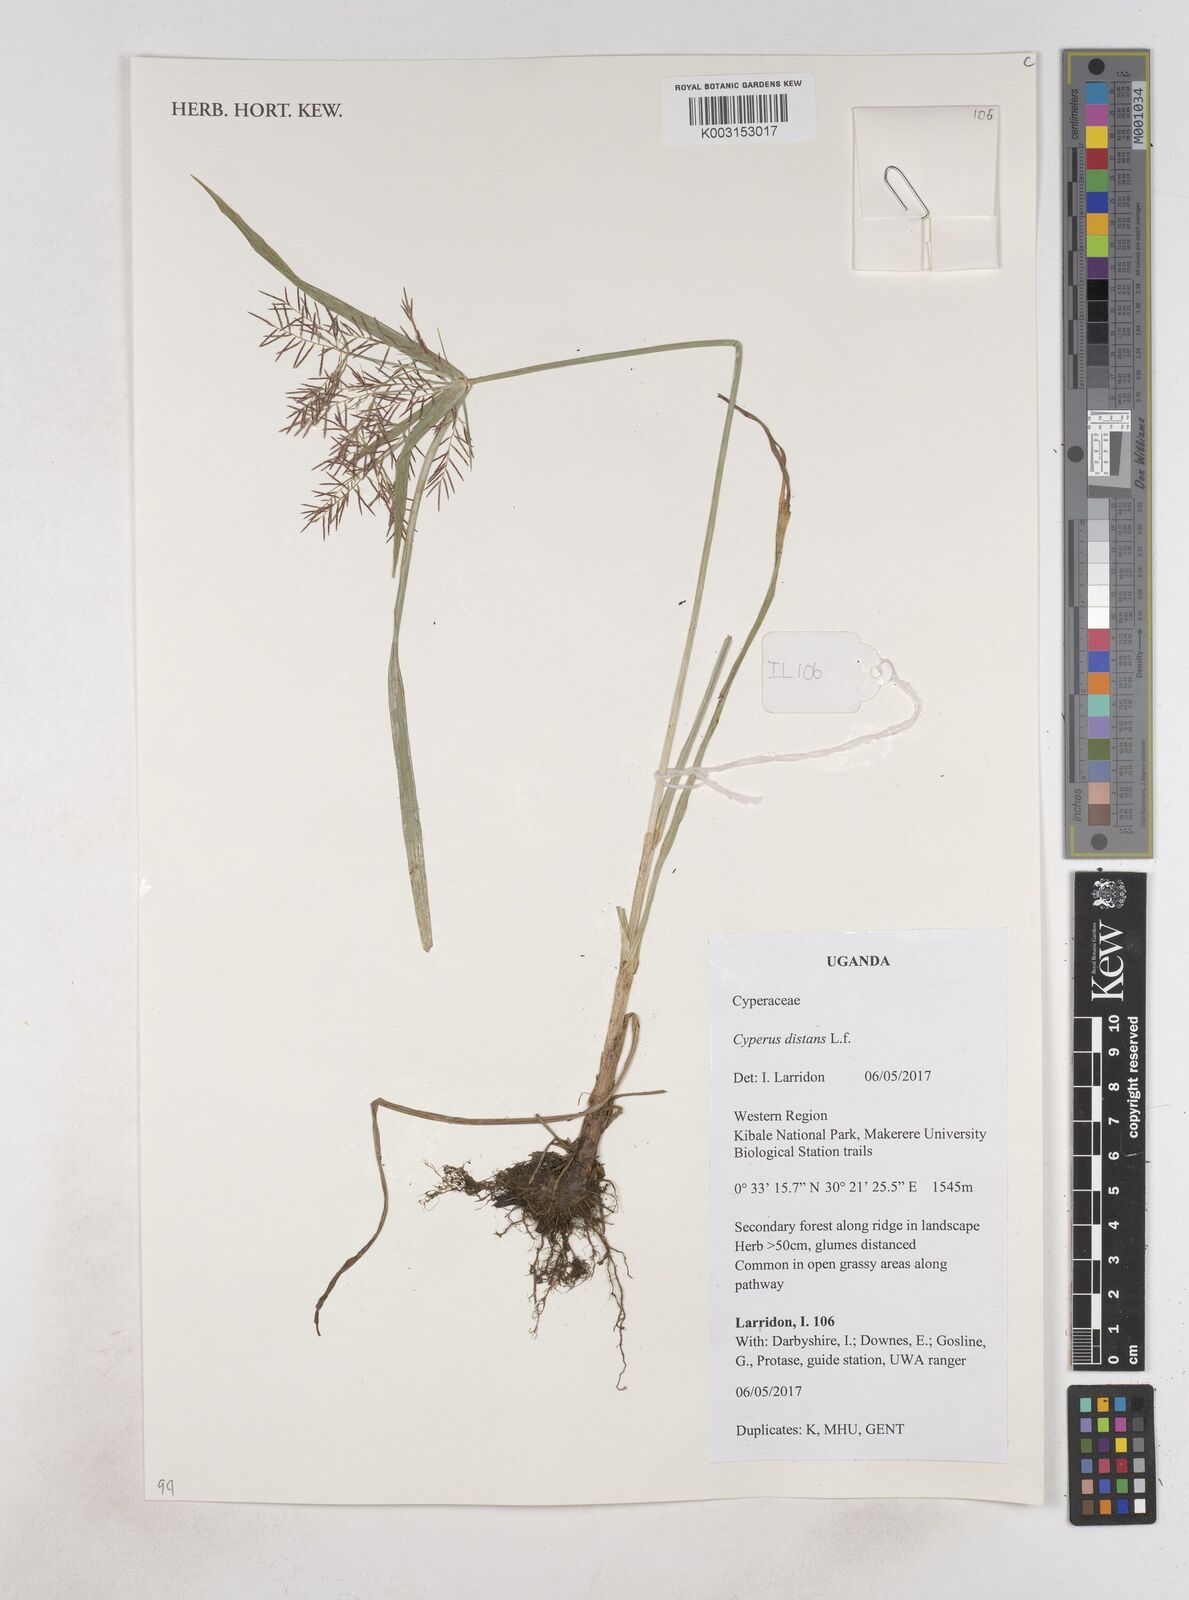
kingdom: Plantae
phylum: Tracheophyta
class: Liliopsida
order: Poales
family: Cyperaceae
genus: Cyperus
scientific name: Cyperus distans
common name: Slender cyperus
